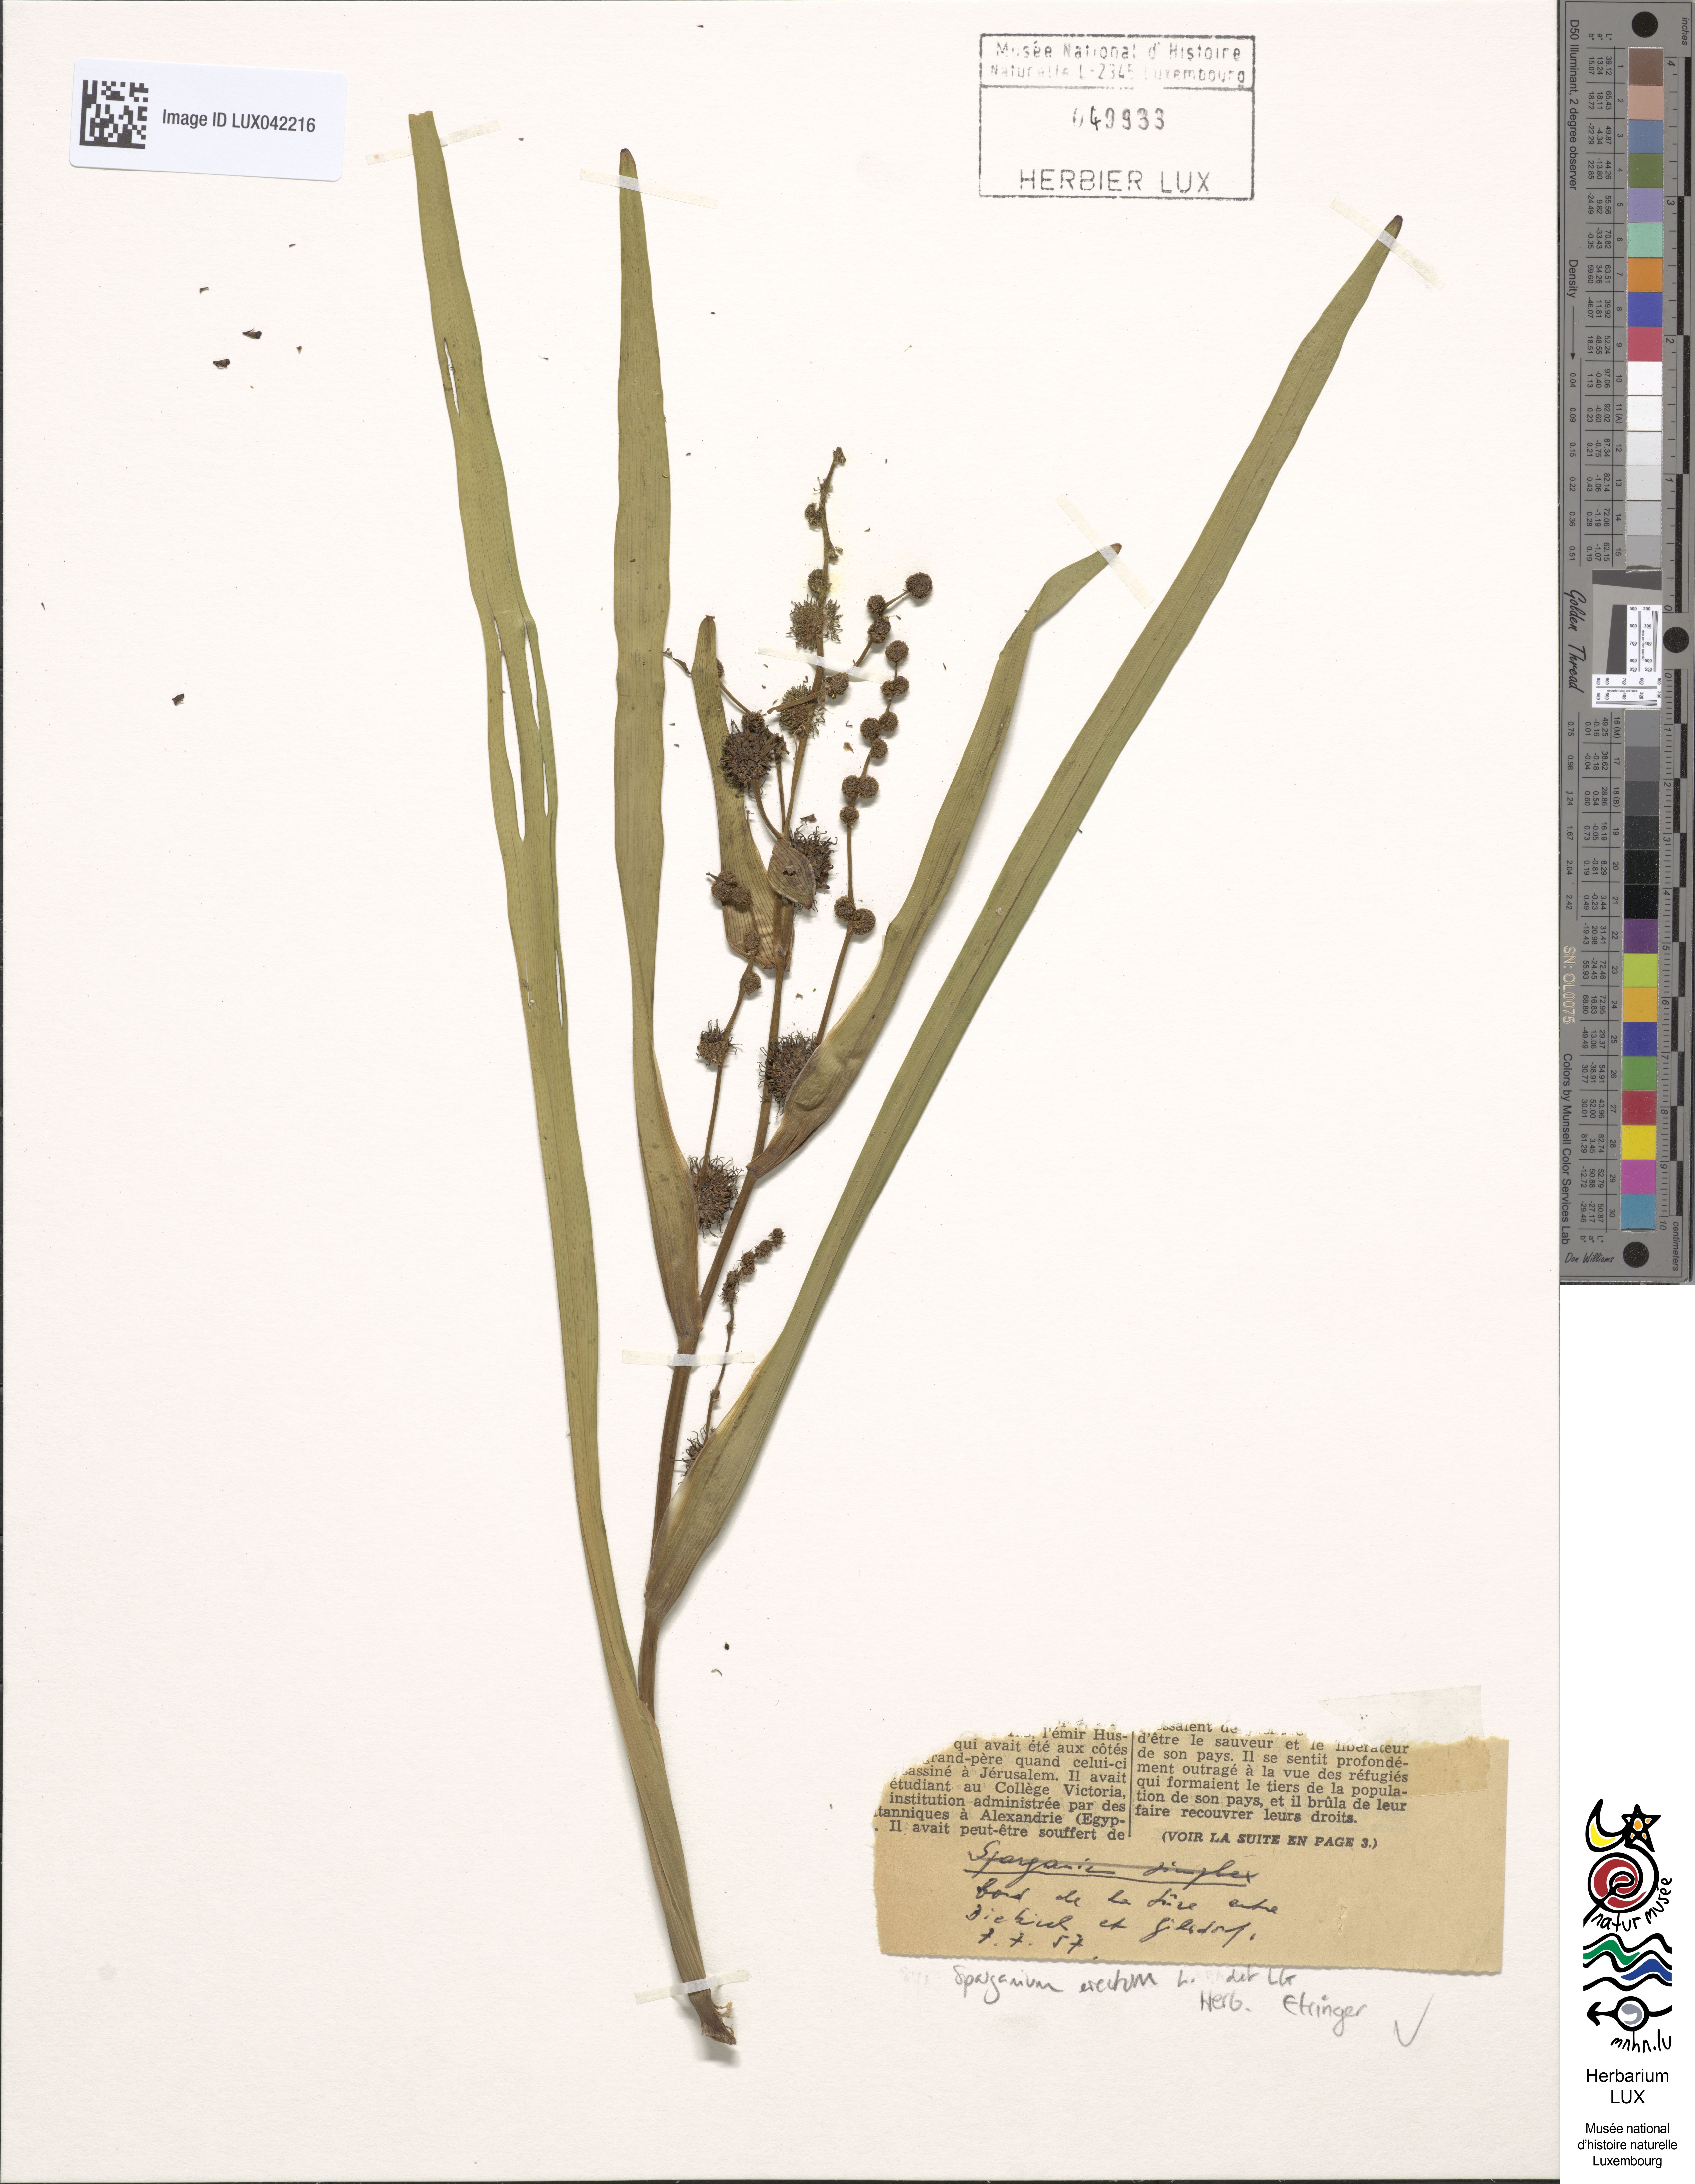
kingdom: Plantae
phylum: Tracheophyta
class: Liliopsida
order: Poales
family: Typhaceae
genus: Sparganium
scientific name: Sparganium erectum
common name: Branched bur-reed
